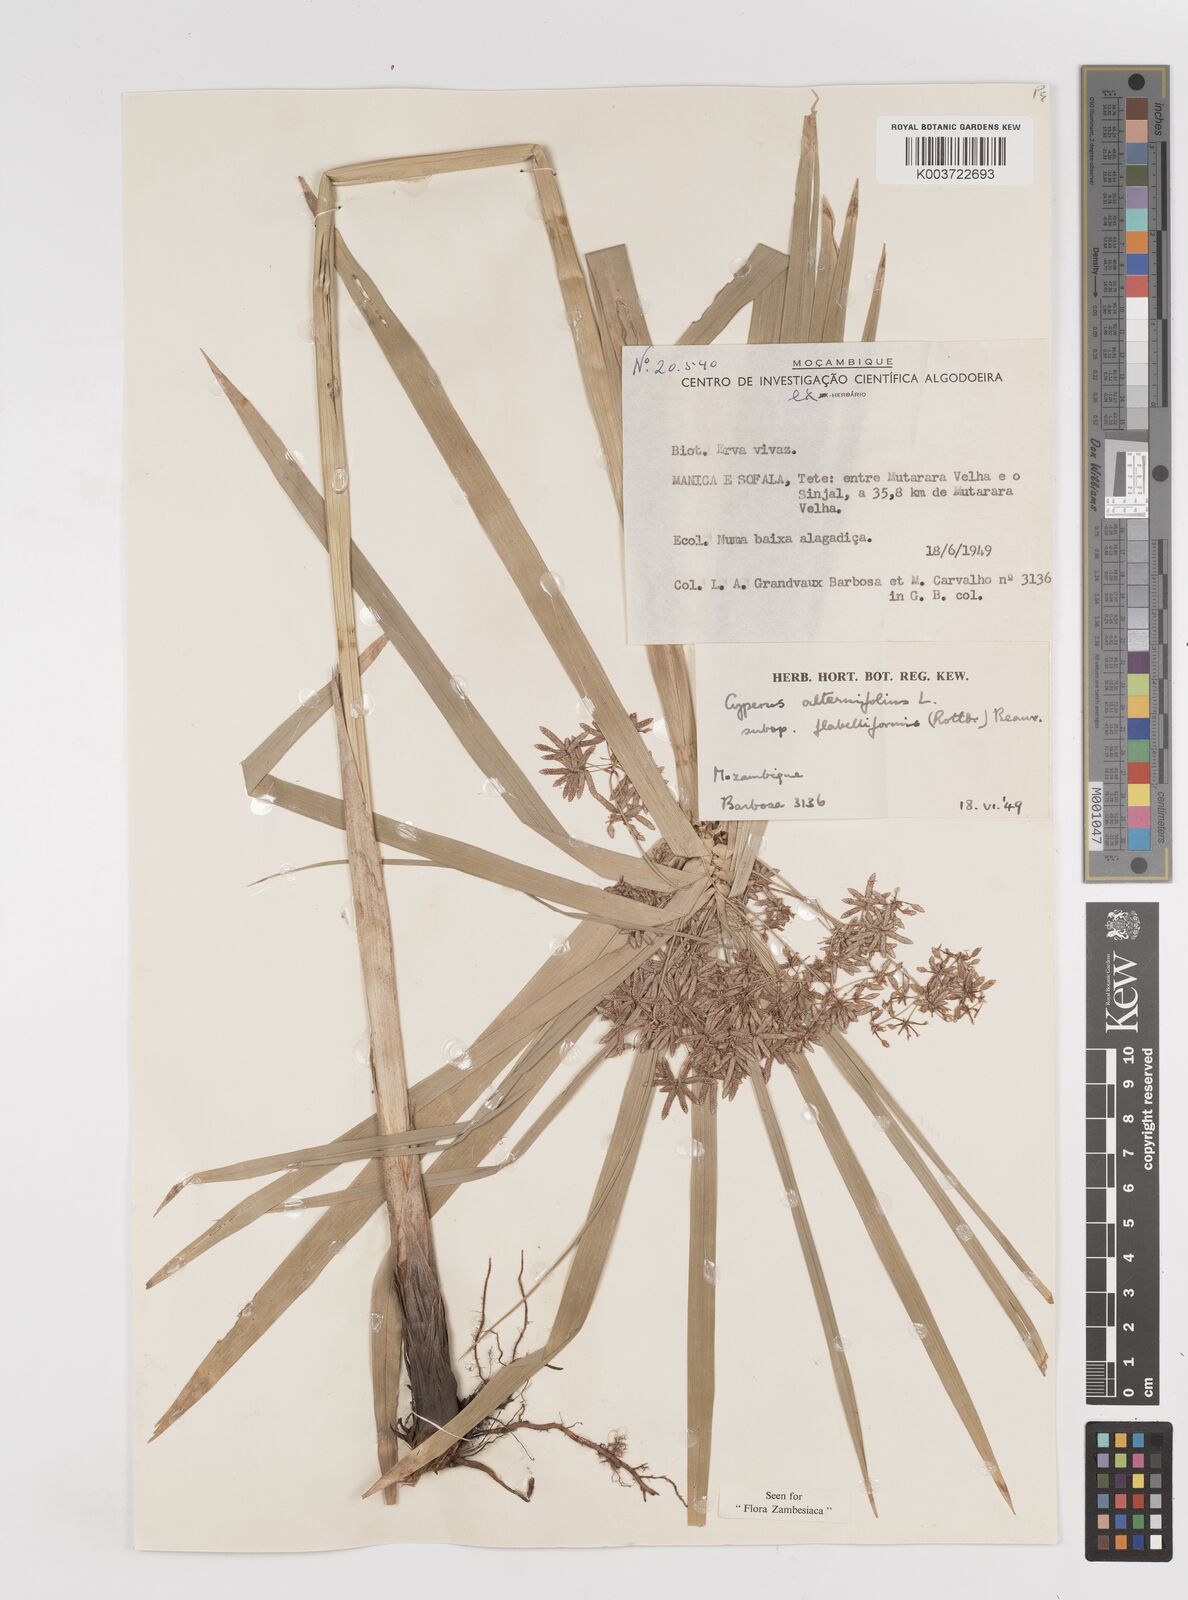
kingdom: Plantae
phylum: Tracheophyta
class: Liliopsida
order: Poales
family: Cyperaceae
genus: Cyperus
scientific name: Cyperus alternifolius
